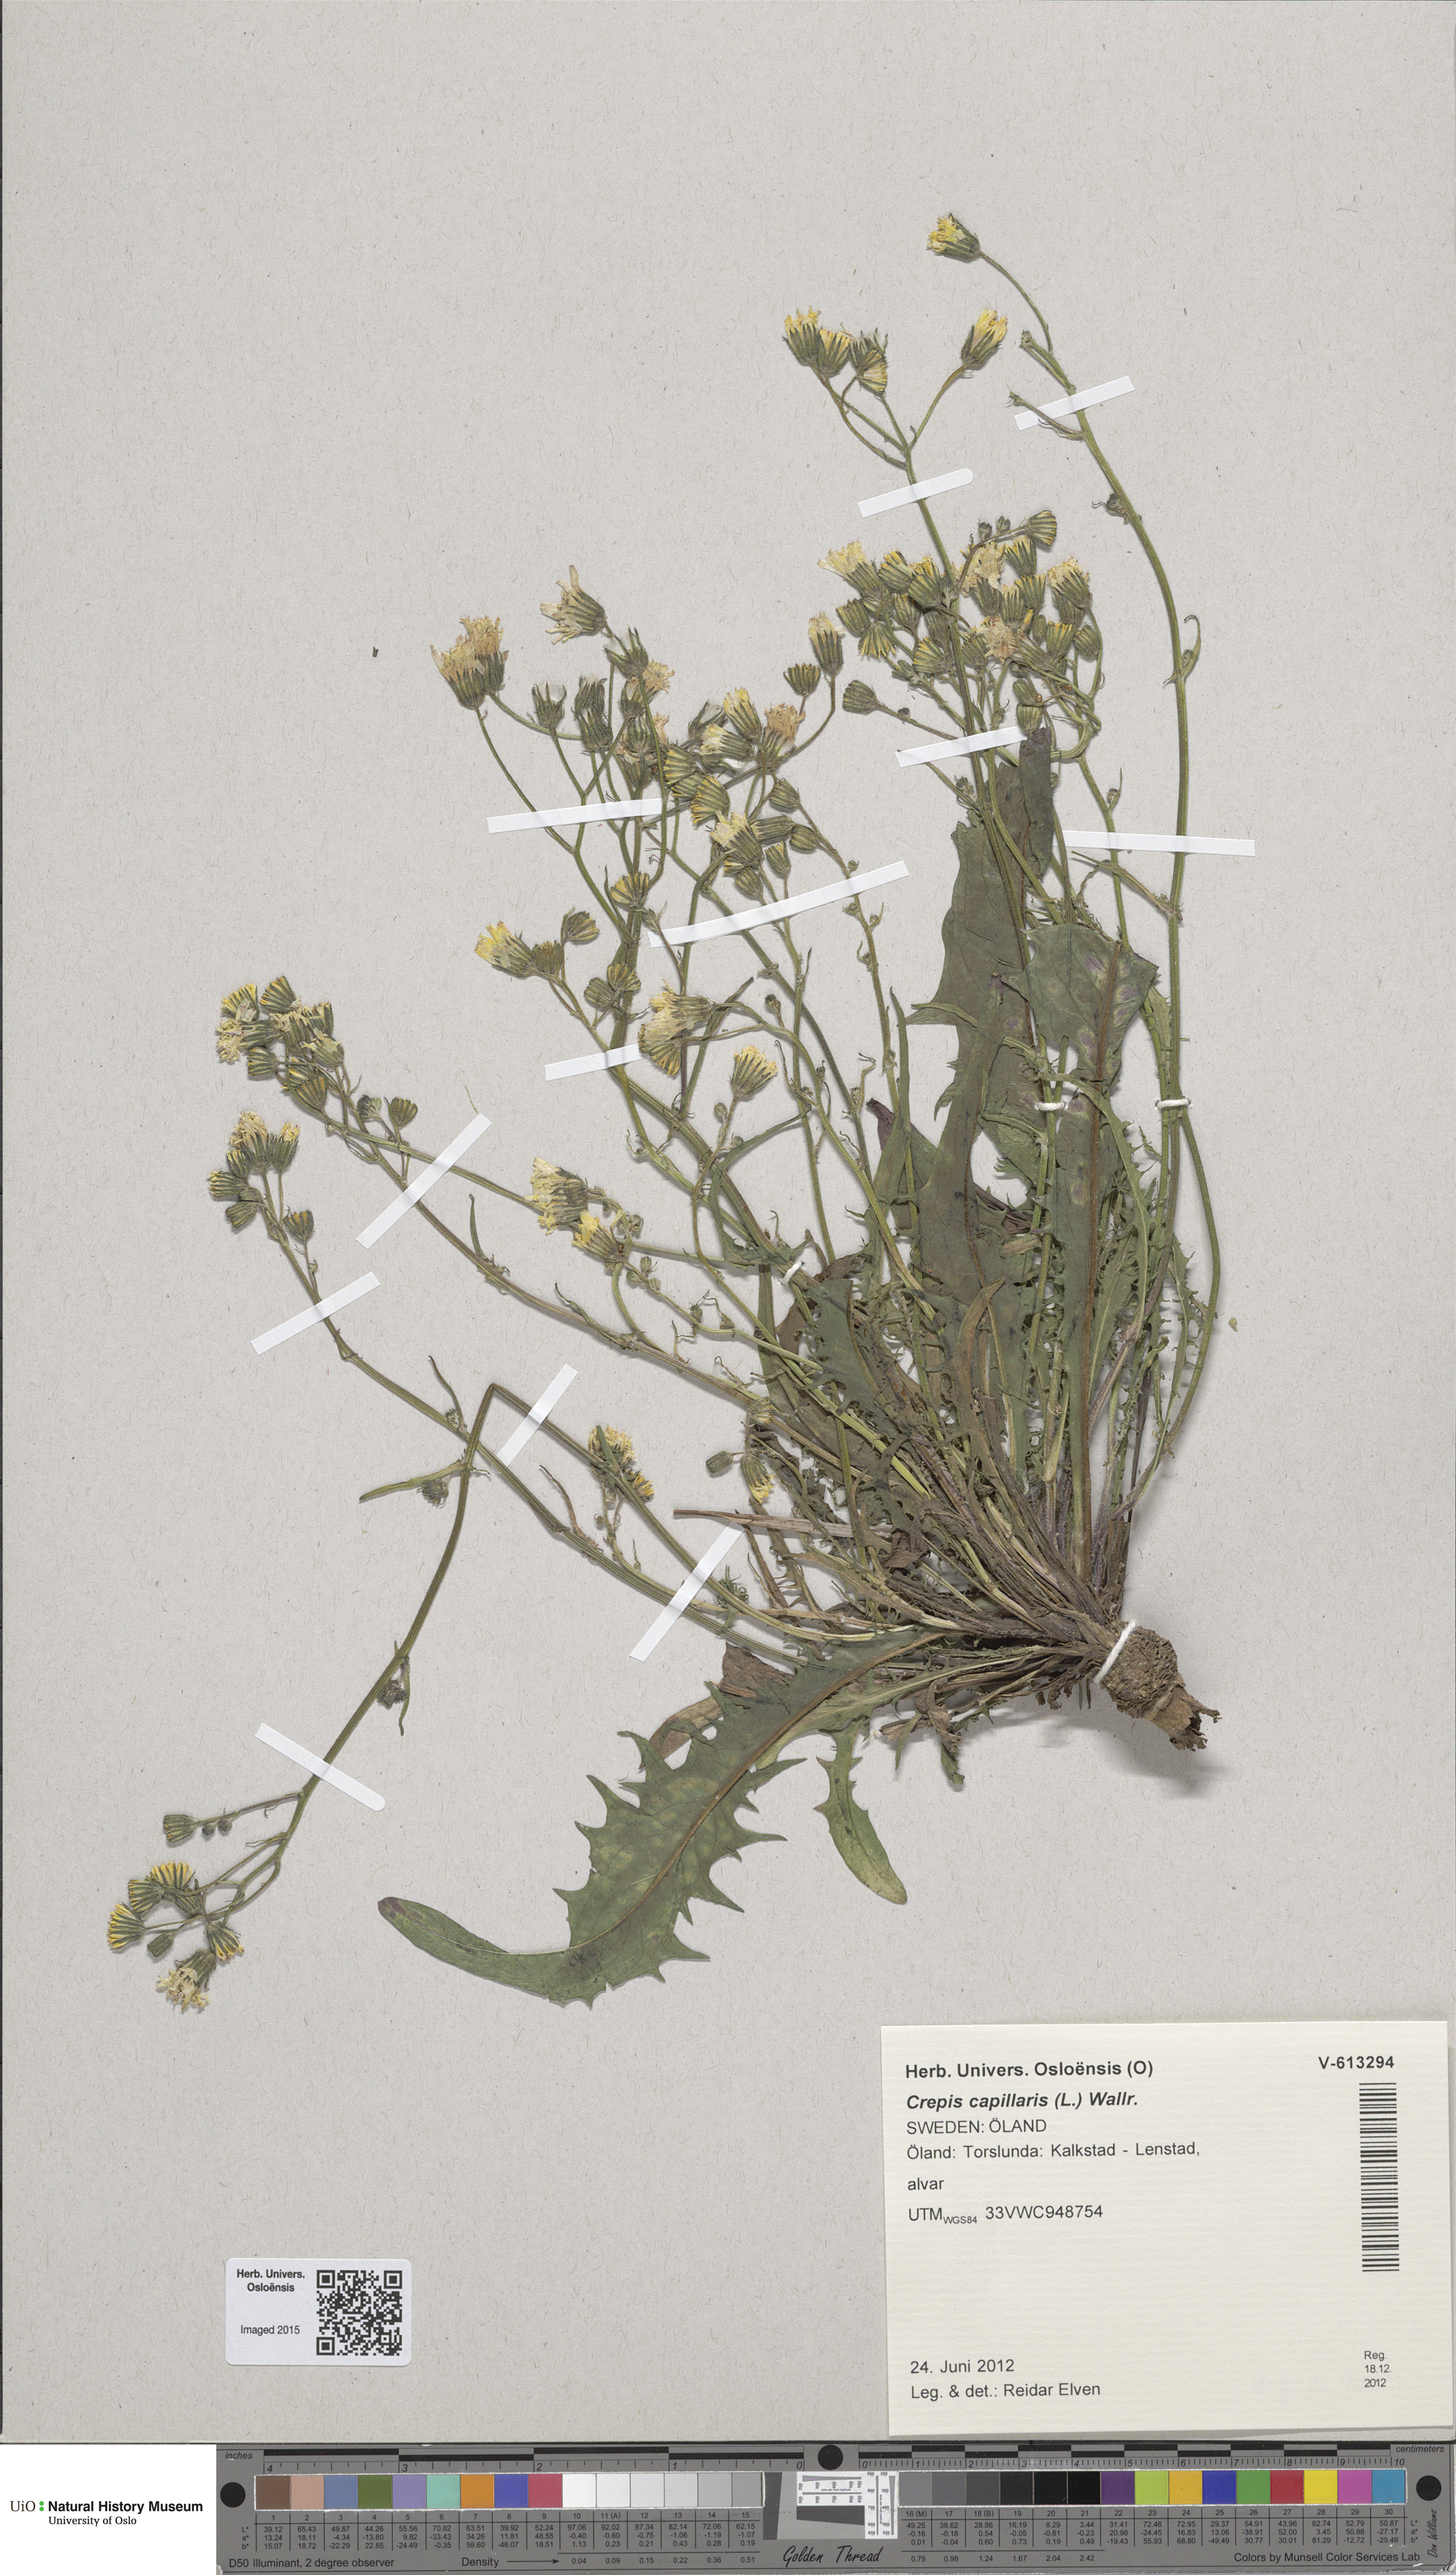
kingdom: Plantae
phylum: Tracheophyta
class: Magnoliopsida
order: Asterales
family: Asteraceae
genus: Crepis
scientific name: Crepis capillaris
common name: Smooth hawksbeard
